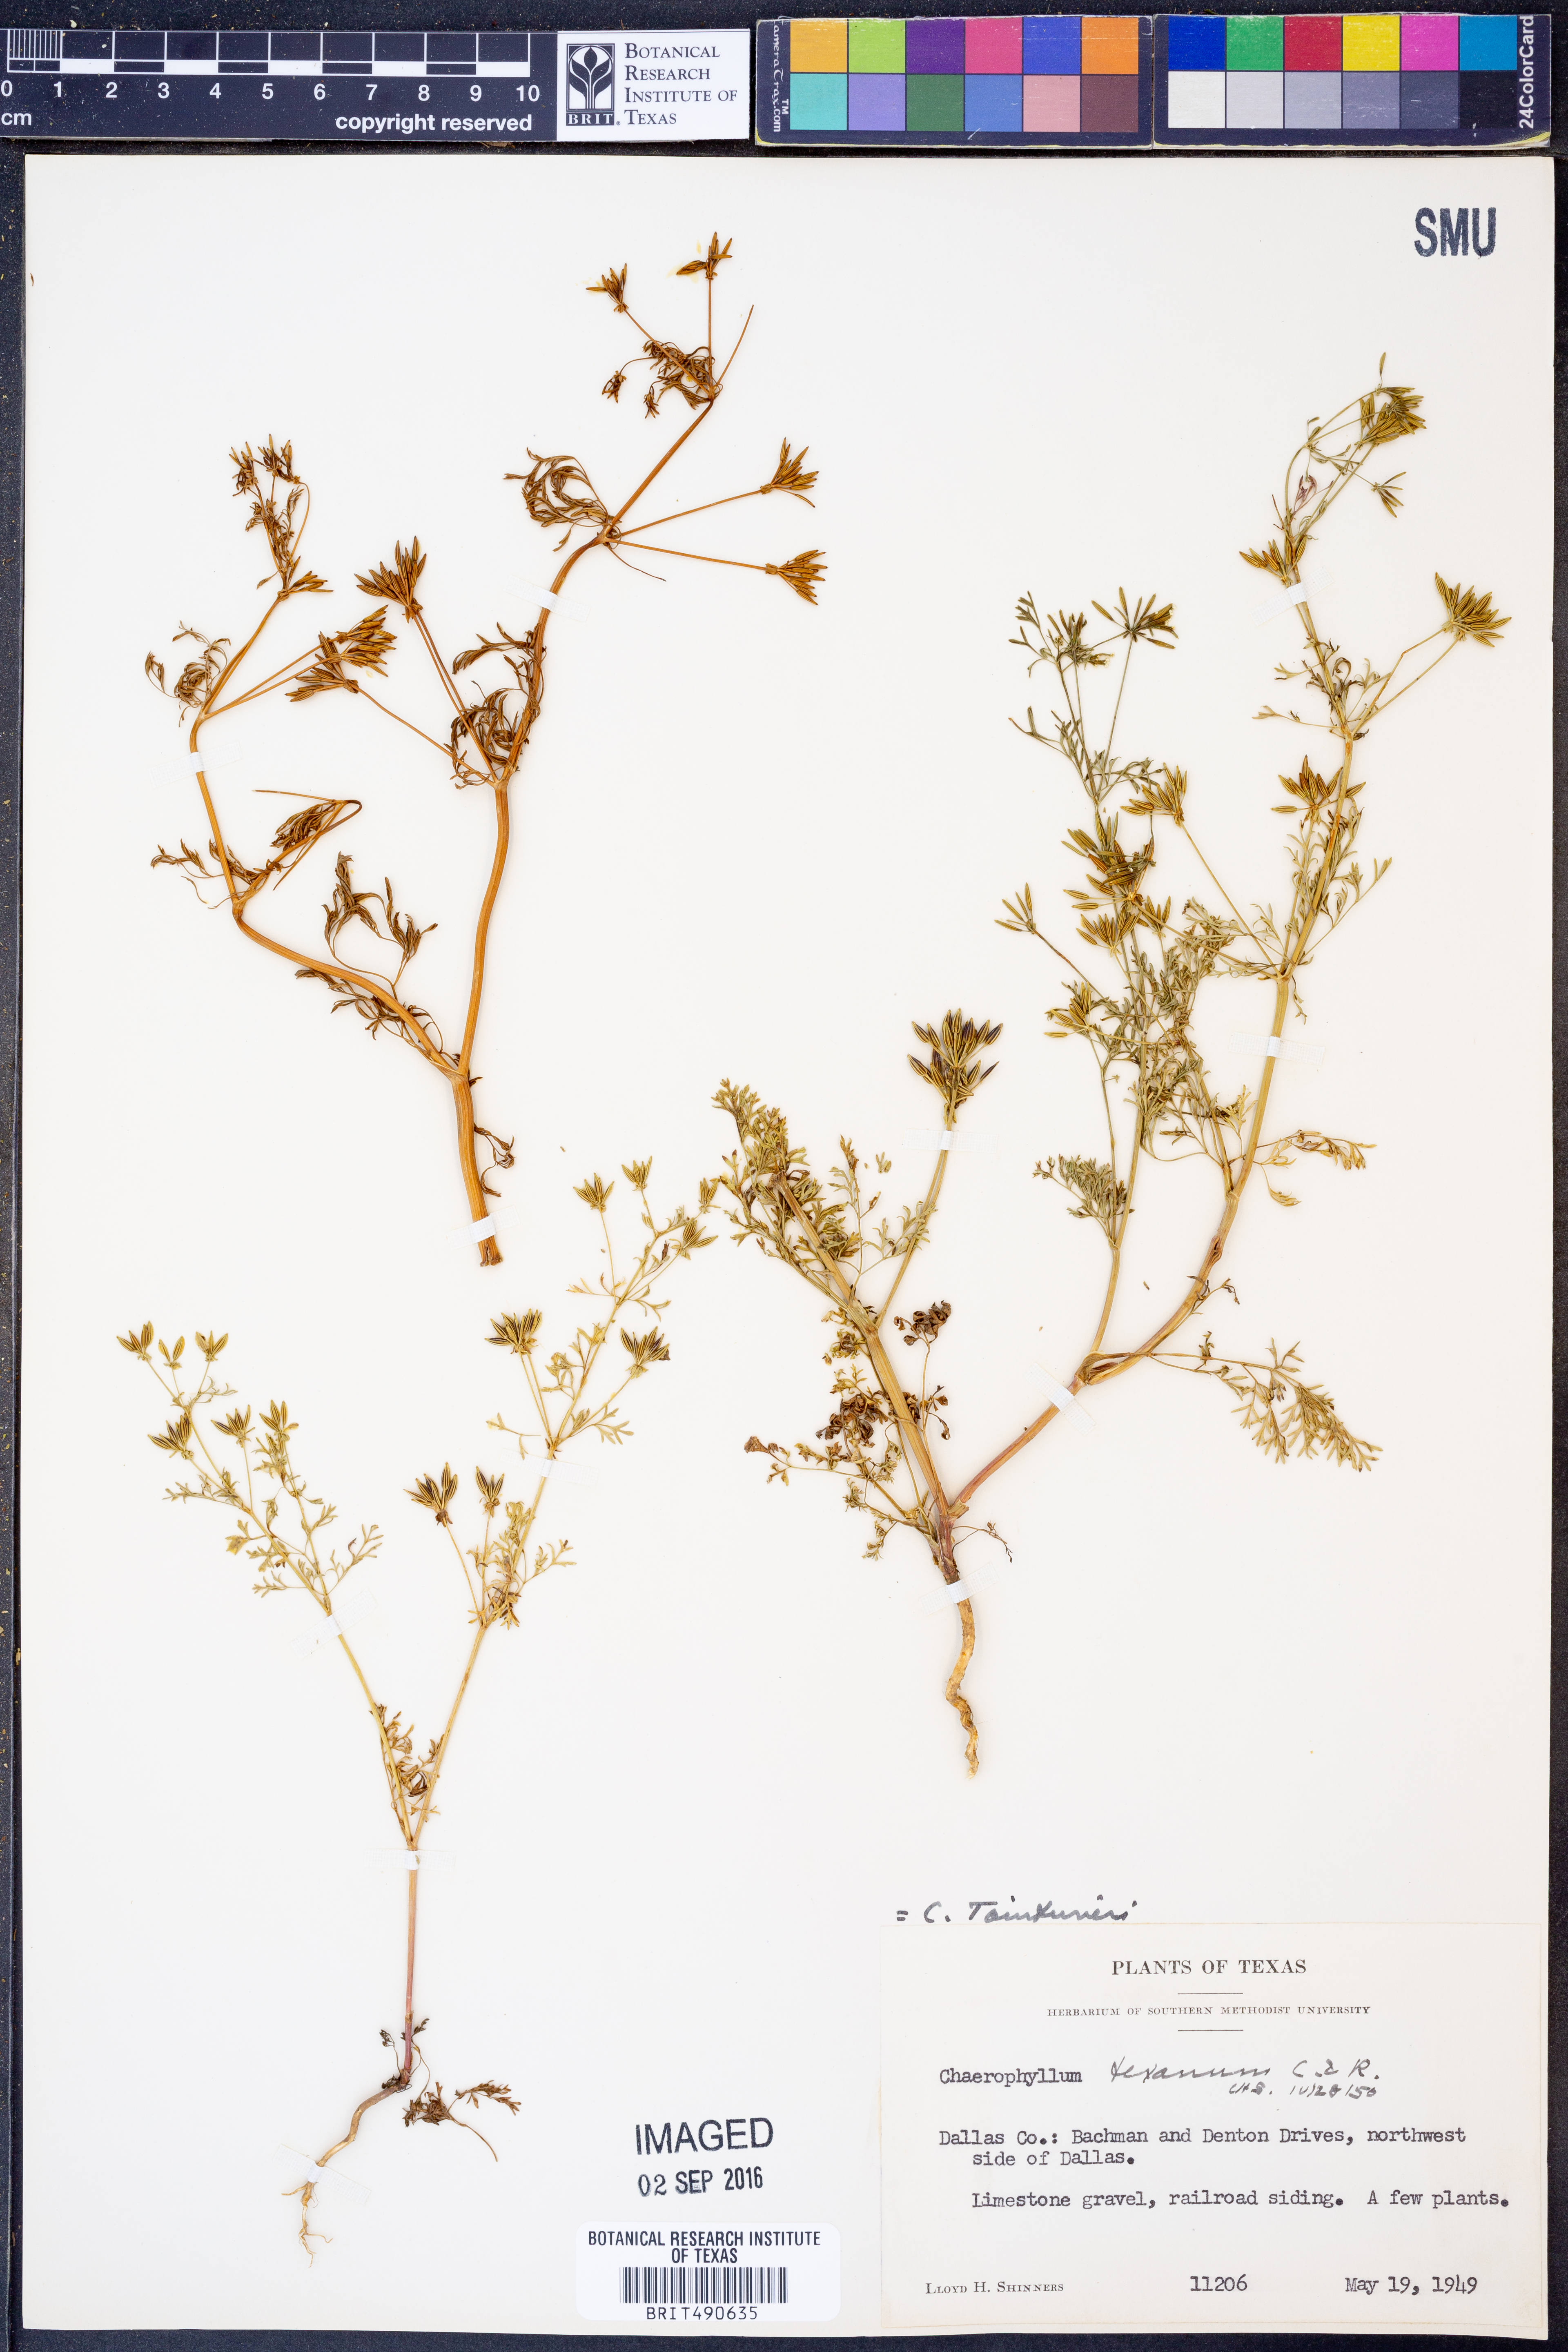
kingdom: Plantae
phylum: Tracheophyta
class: Magnoliopsida
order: Apiales
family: Apiaceae
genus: Chaerophyllum
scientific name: Chaerophyllum tainturieri
